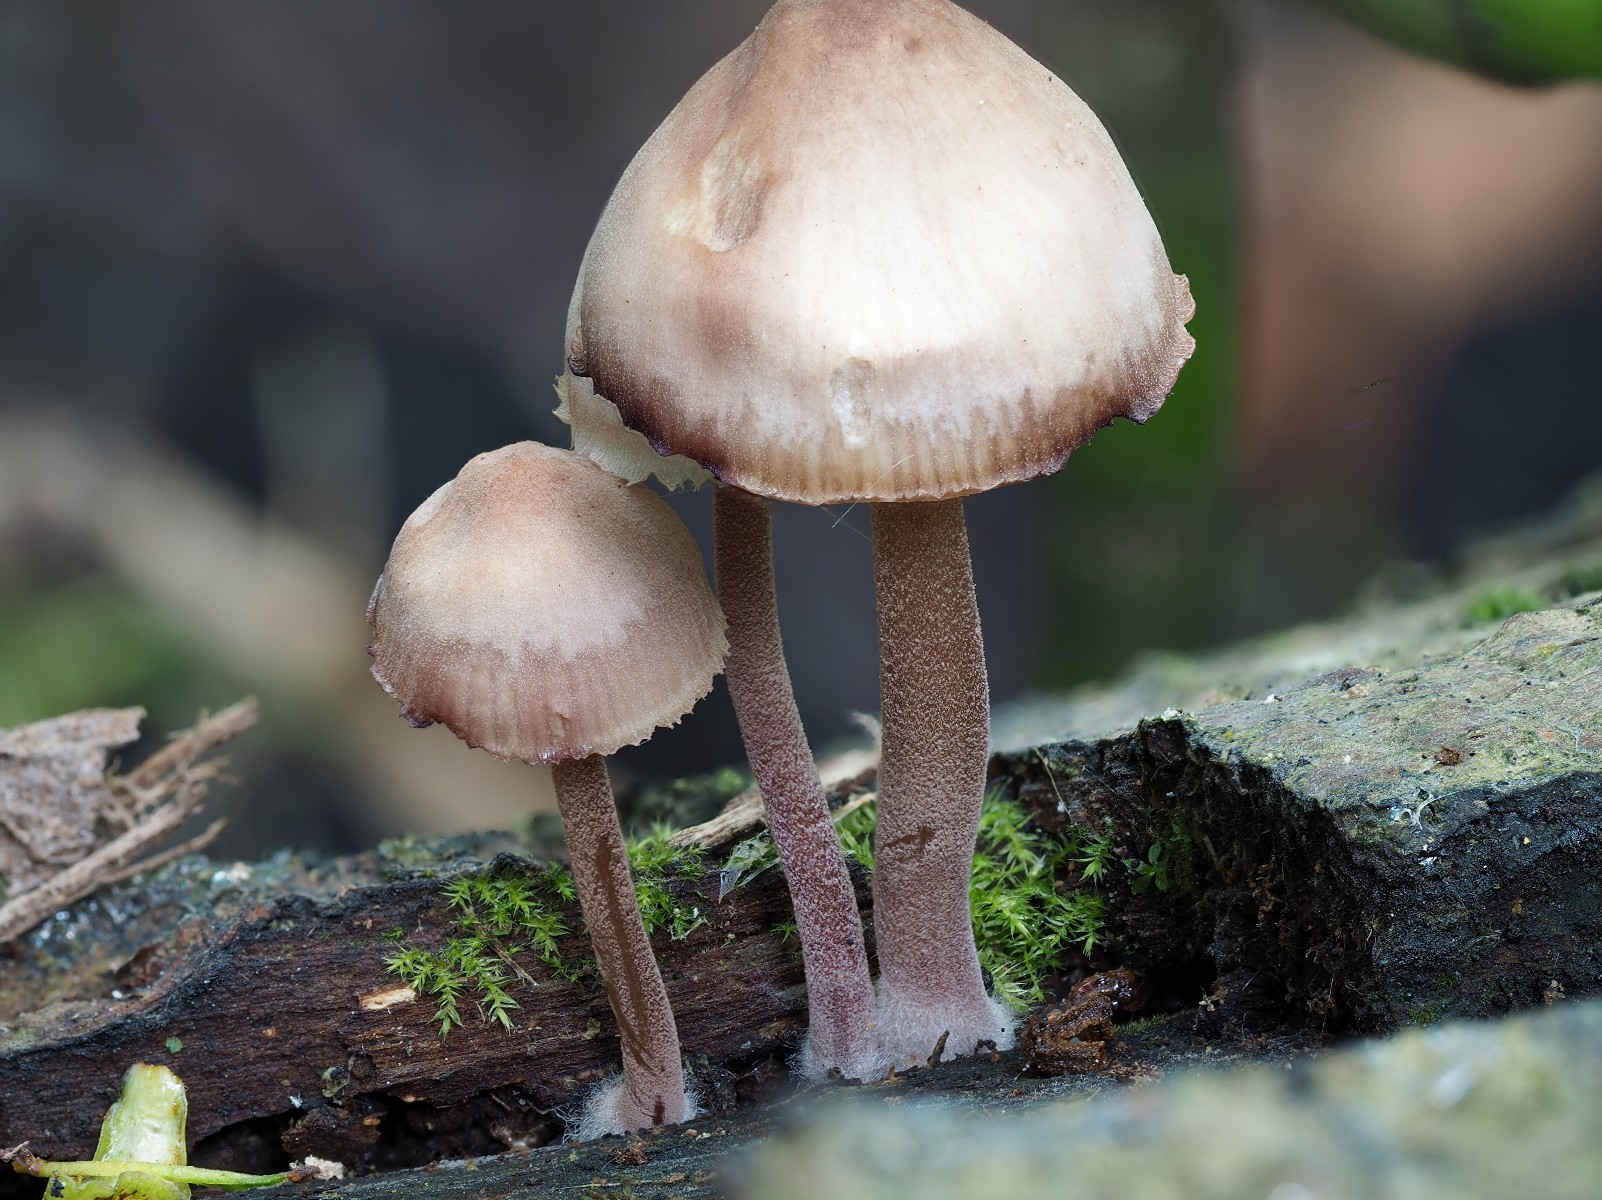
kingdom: Fungi
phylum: Basidiomycota
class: Agaricomycetes
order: Agaricales
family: Mycenaceae
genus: Mycena
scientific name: Mycena haematopus
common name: blødende huesvamp
